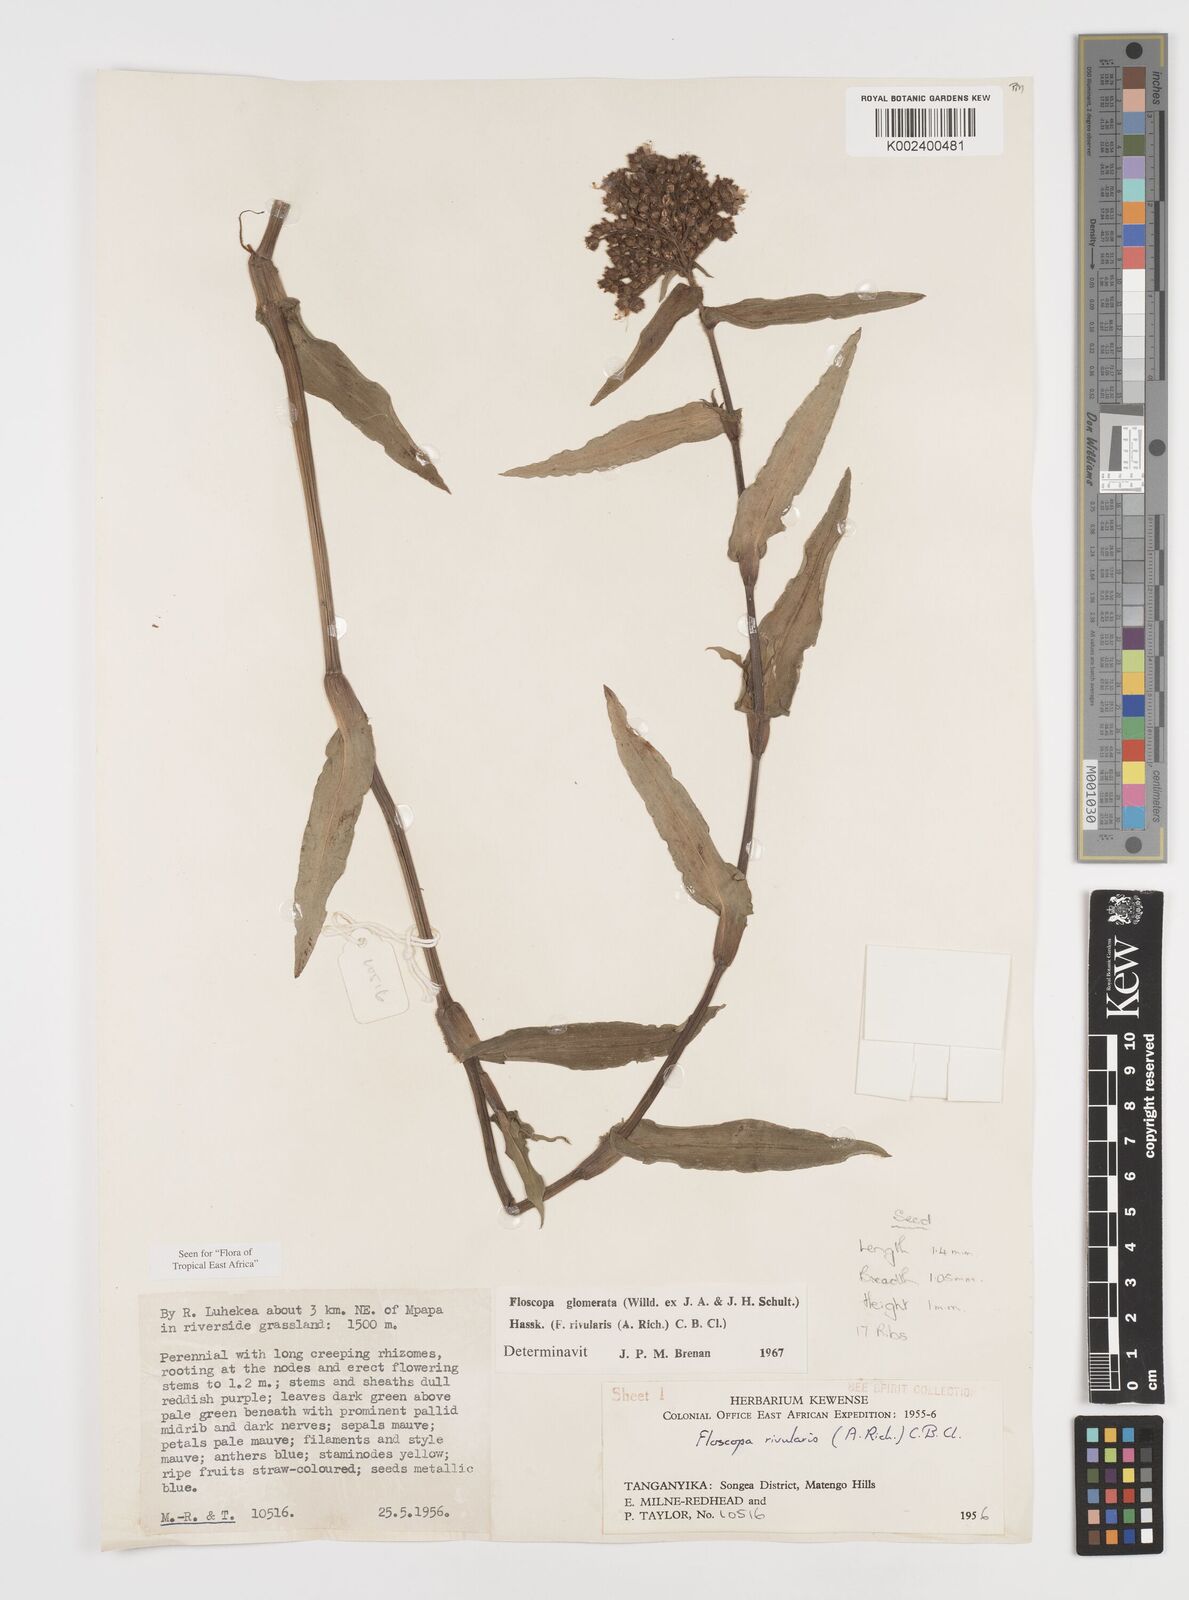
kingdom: Plantae
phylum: Tracheophyta
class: Liliopsida
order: Commelinales
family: Commelinaceae
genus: Floscopa
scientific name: Floscopa glomerata
